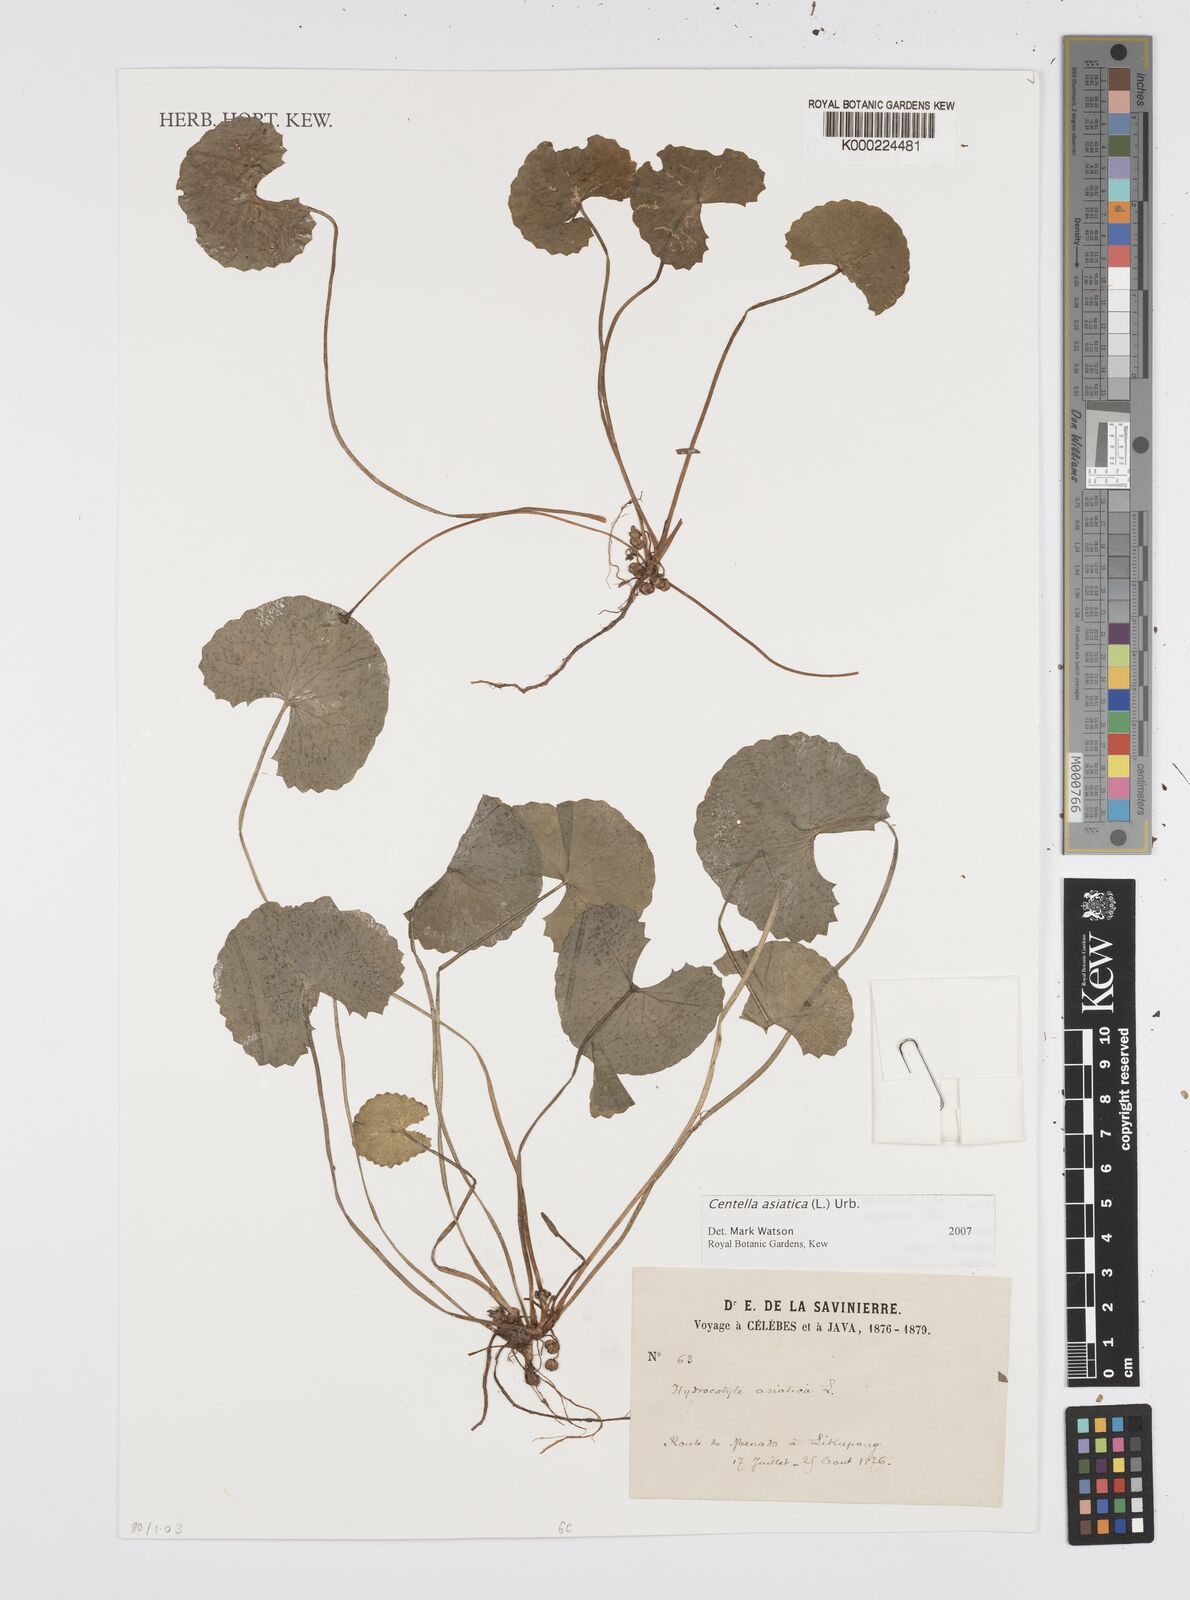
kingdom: Plantae
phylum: Tracheophyta
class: Magnoliopsida
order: Apiales
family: Apiaceae
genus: Centella
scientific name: Centella asiatica
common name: Spadeleaf
